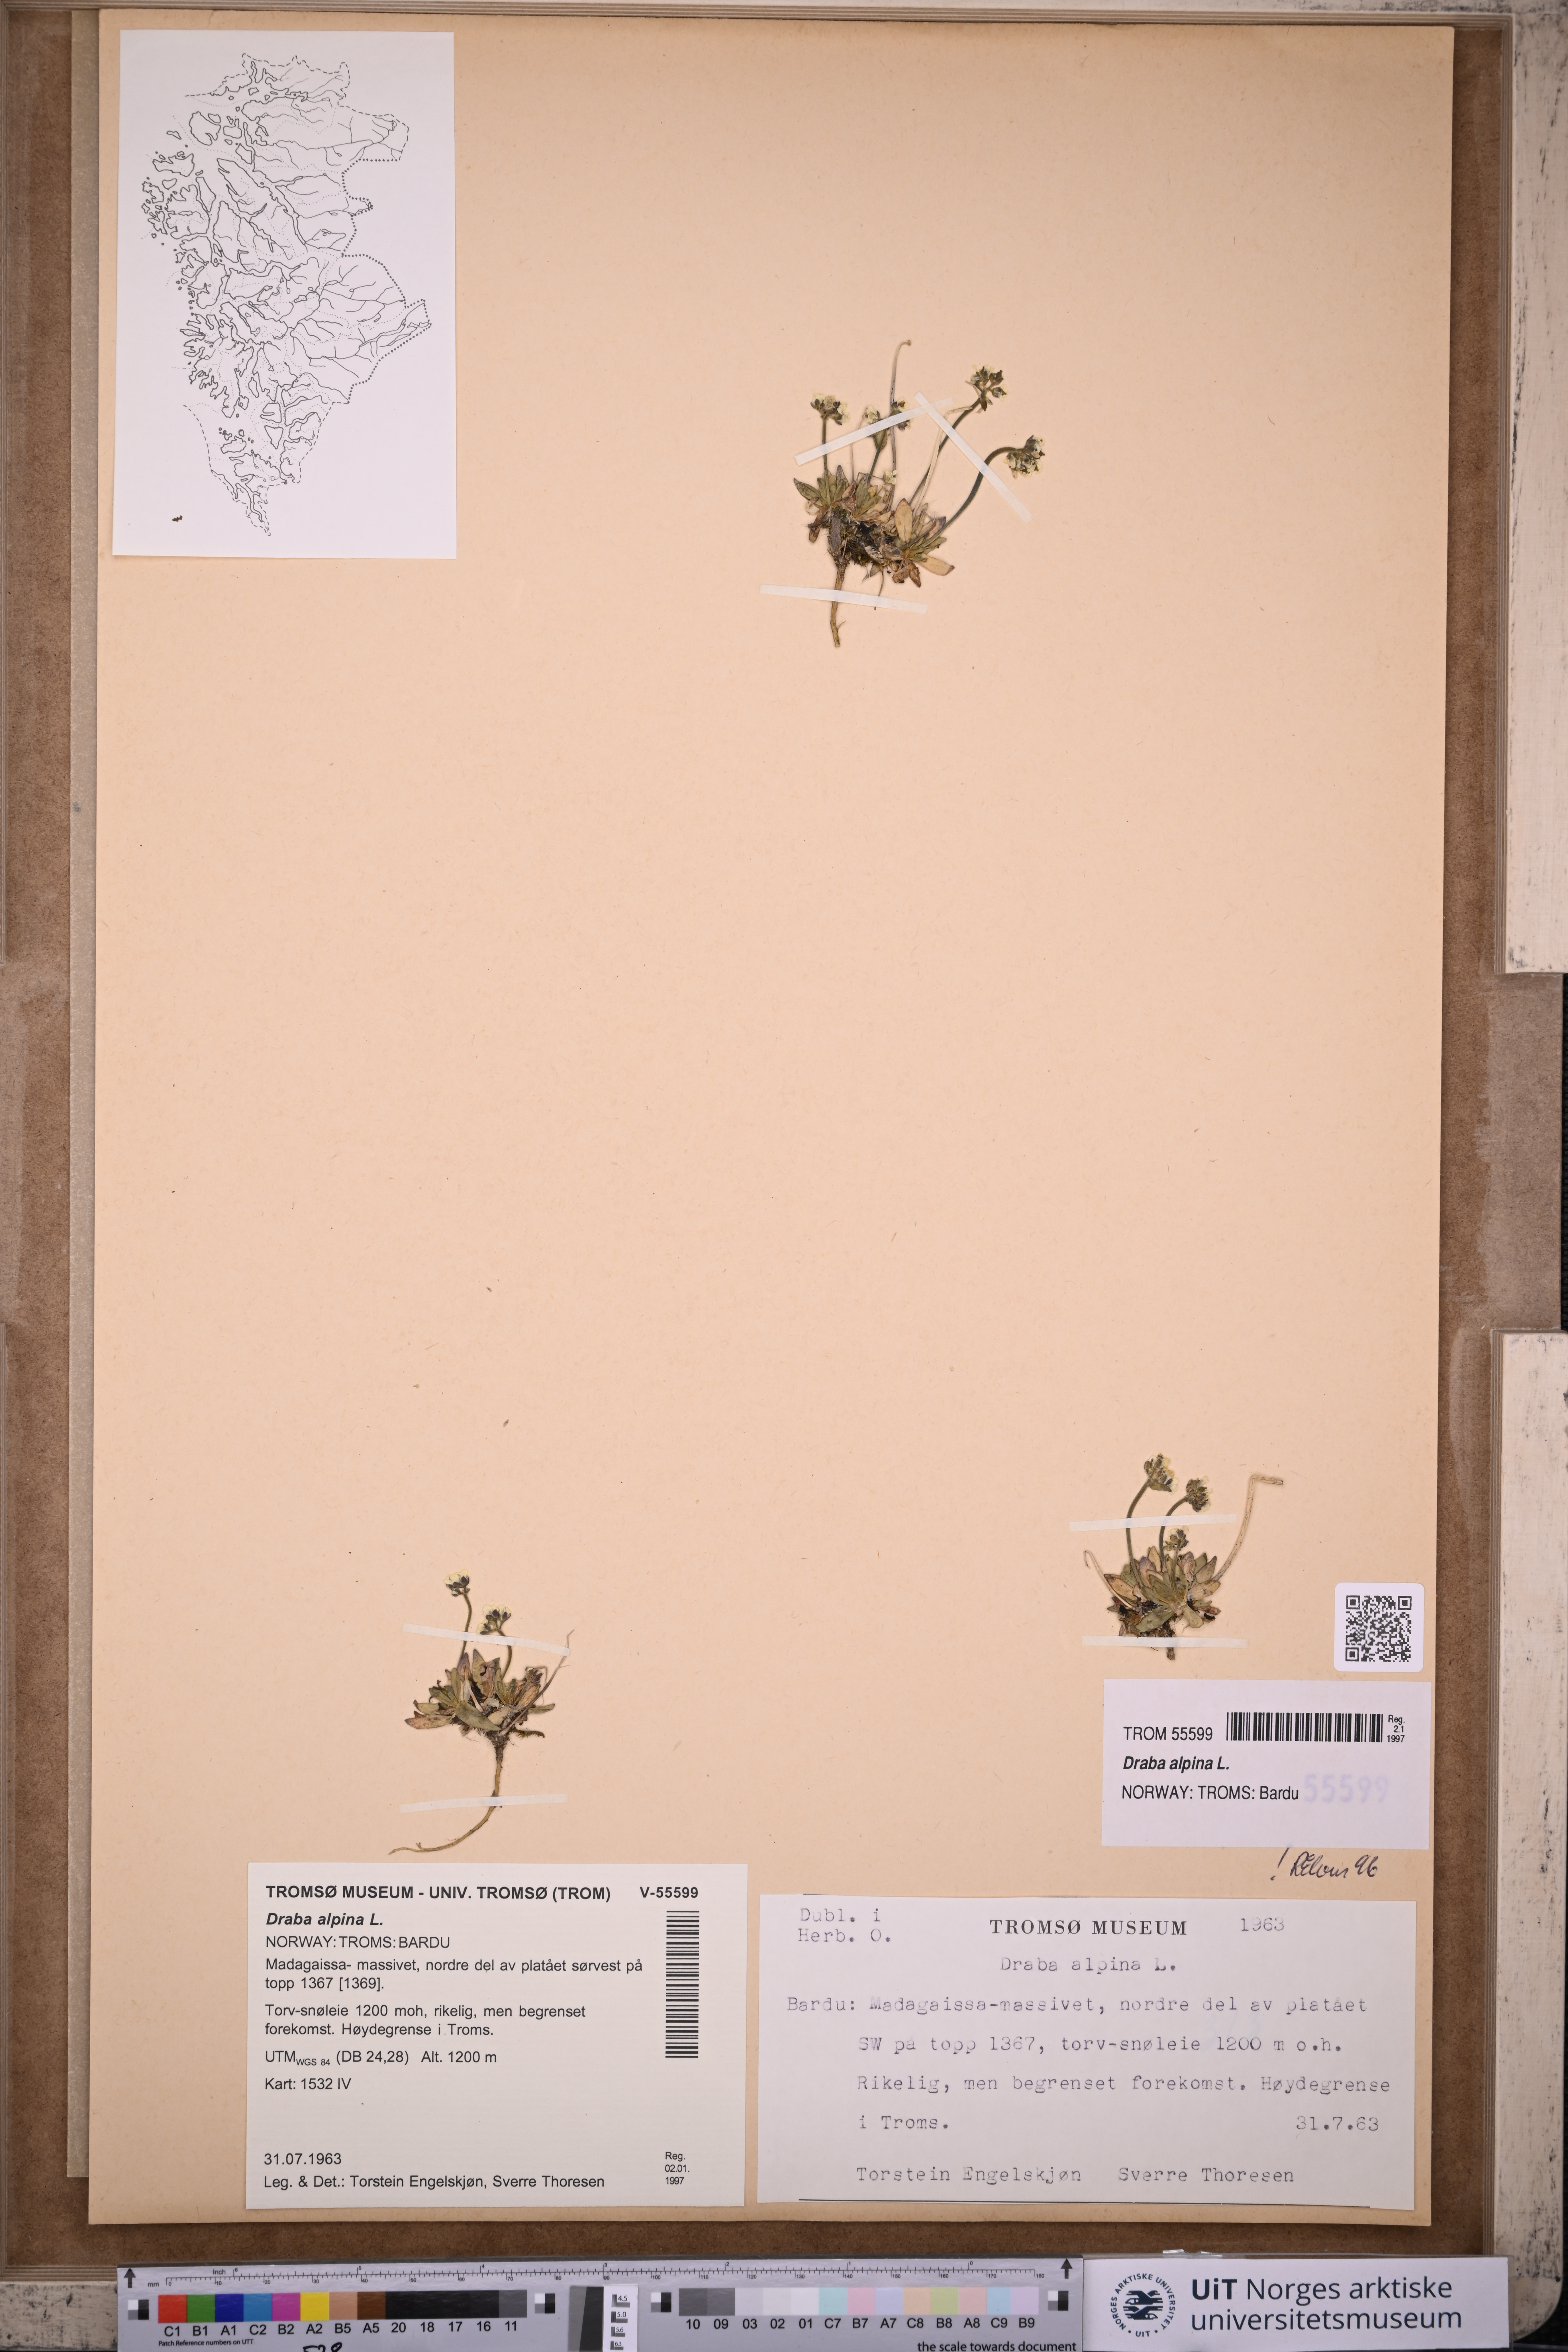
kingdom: Plantae
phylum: Tracheophyta
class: Magnoliopsida
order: Brassicales
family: Brassicaceae
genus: Draba
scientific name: Draba alpina
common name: Alpine draba
